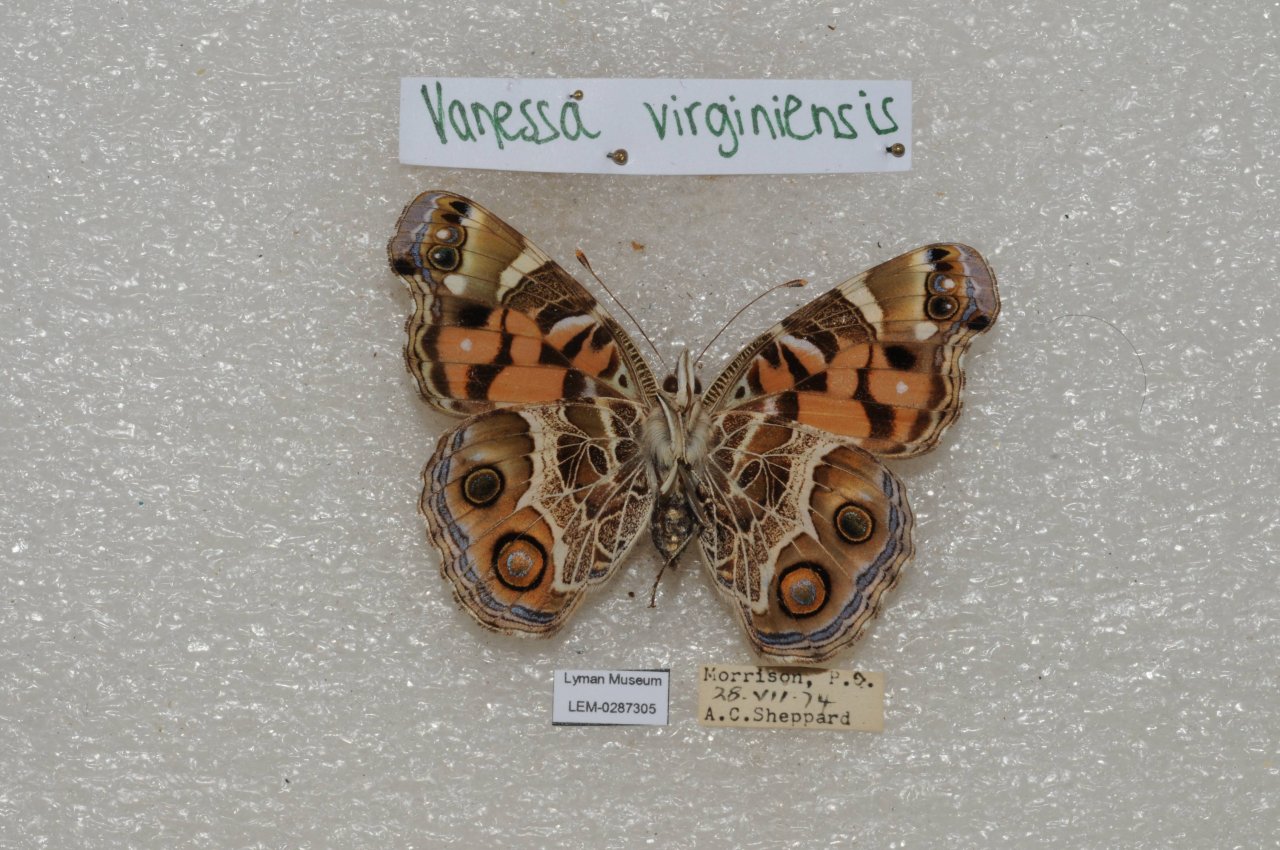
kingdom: Animalia
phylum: Arthropoda
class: Insecta
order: Lepidoptera
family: Nymphalidae
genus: Vanessa
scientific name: Vanessa virginiensis
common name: American Lady
